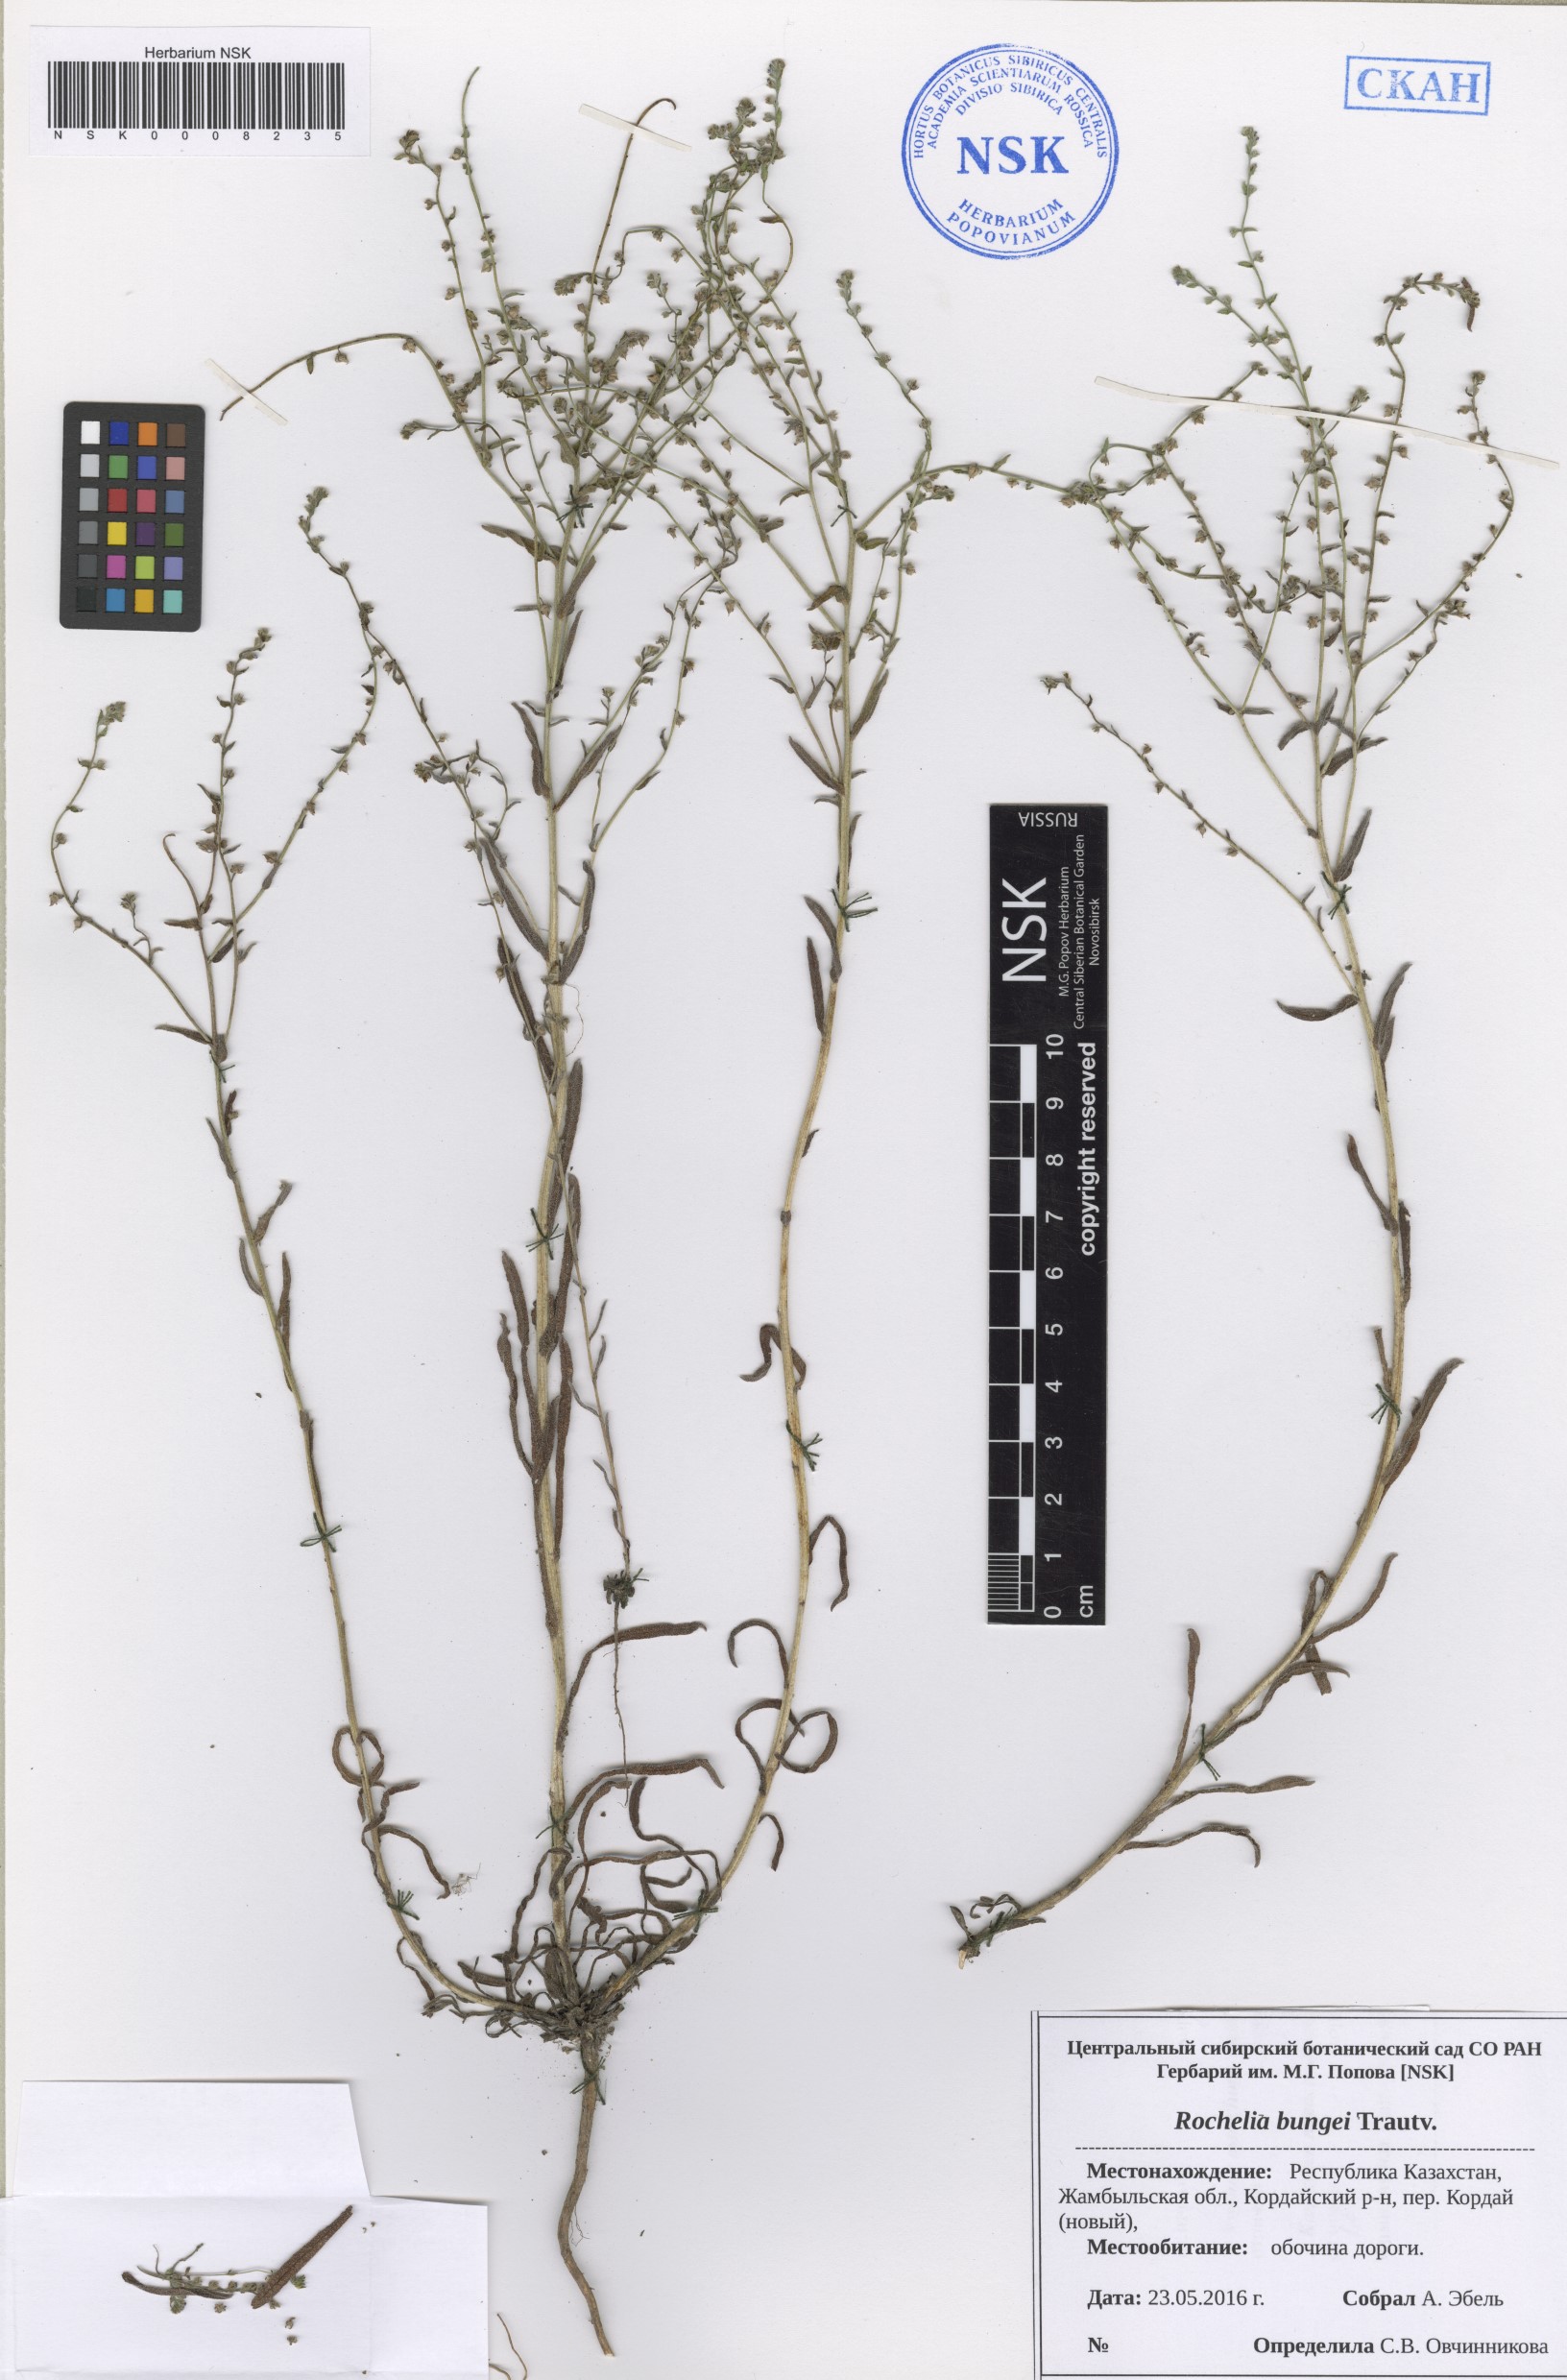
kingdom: Plantae
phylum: Tracheophyta
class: Magnoliopsida
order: Boraginales
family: Boraginaceae
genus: Rochelia
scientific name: Rochelia bungei
